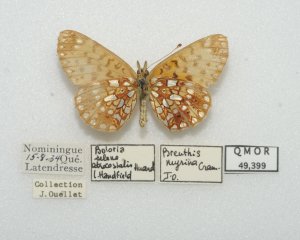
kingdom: Animalia
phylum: Arthropoda
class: Insecta
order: Lepidoptera
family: Nymphalidae
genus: Boloria
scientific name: Boloria selene
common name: Silver-bordered Fritillary
